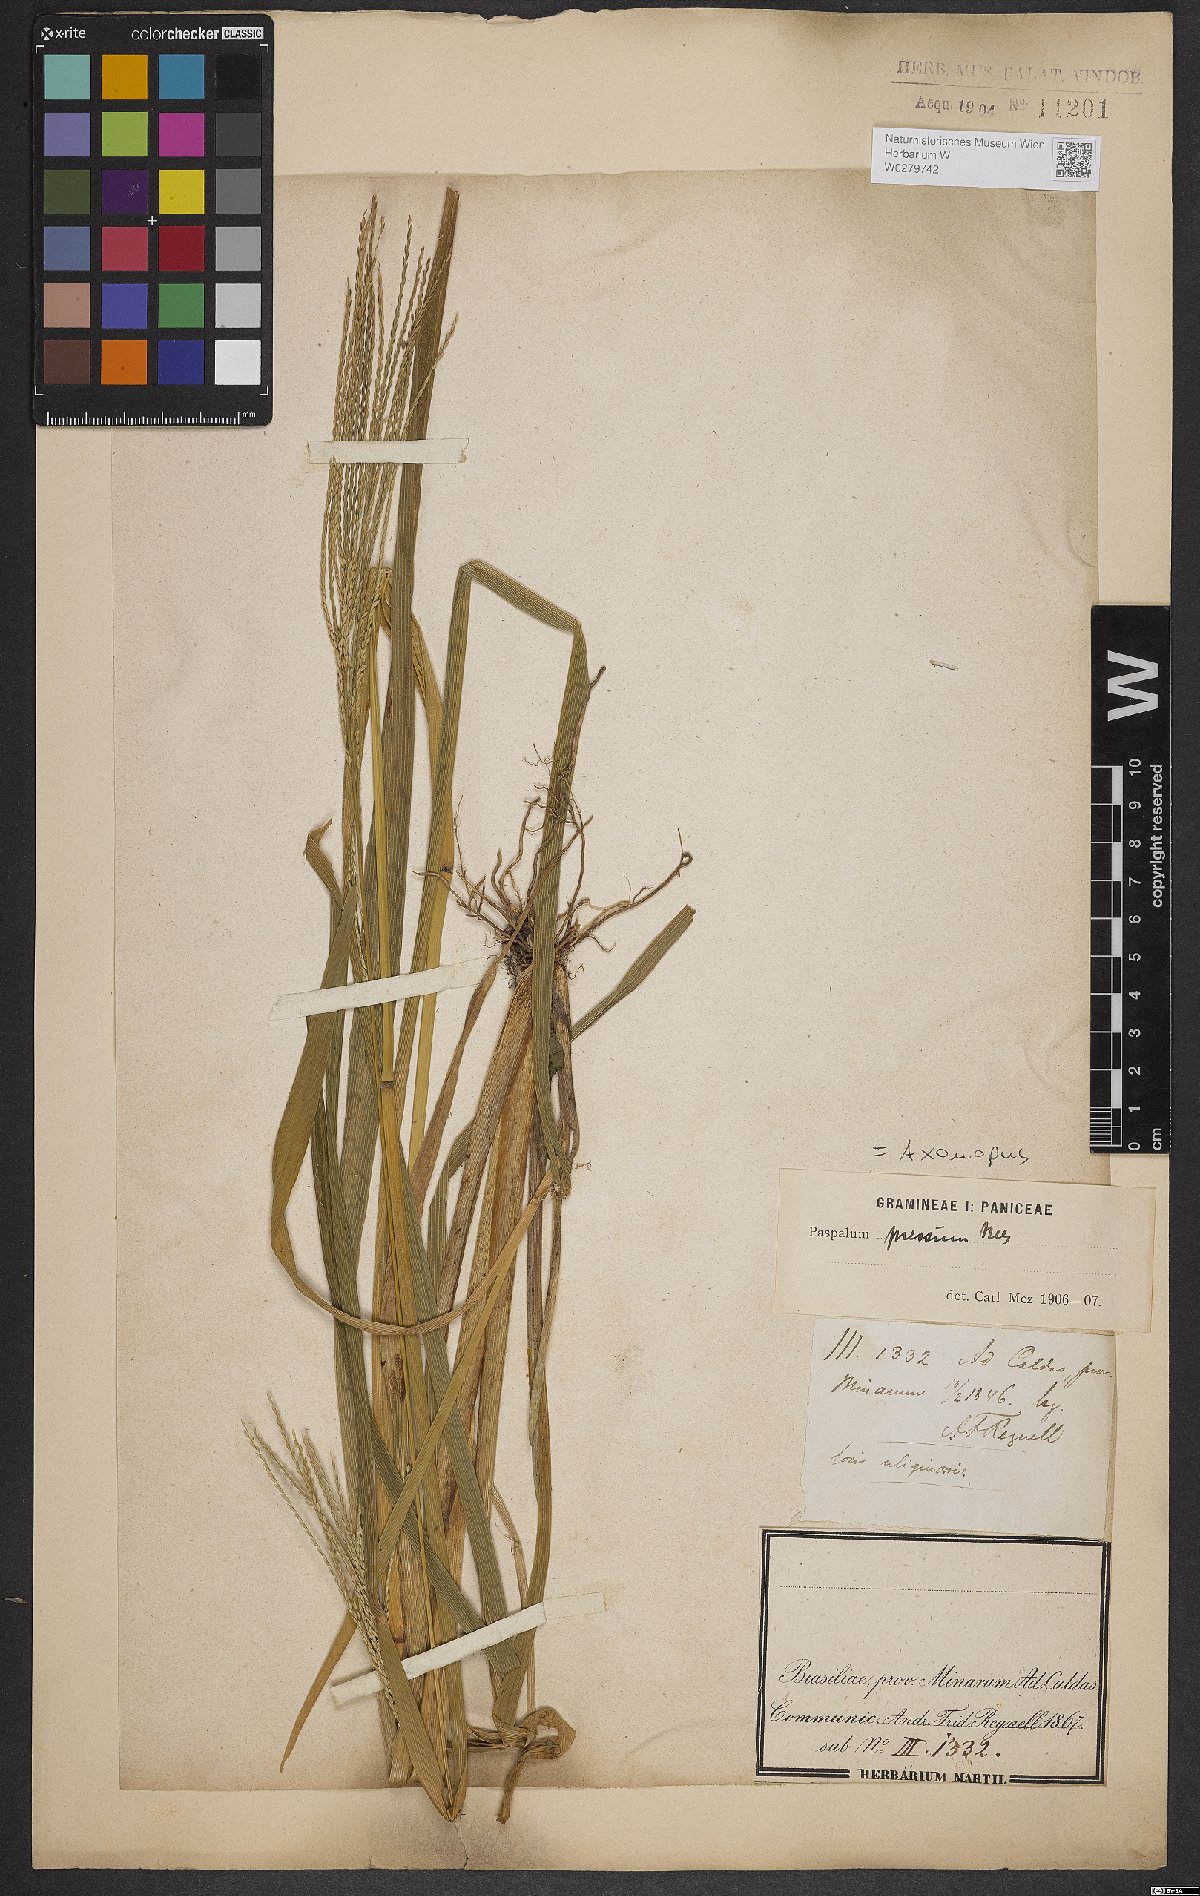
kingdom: Plantae
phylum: Tracheophyta
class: Liliopsida
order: Poales
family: Poaceae
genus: Axonopus
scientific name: Axonopus pressus
